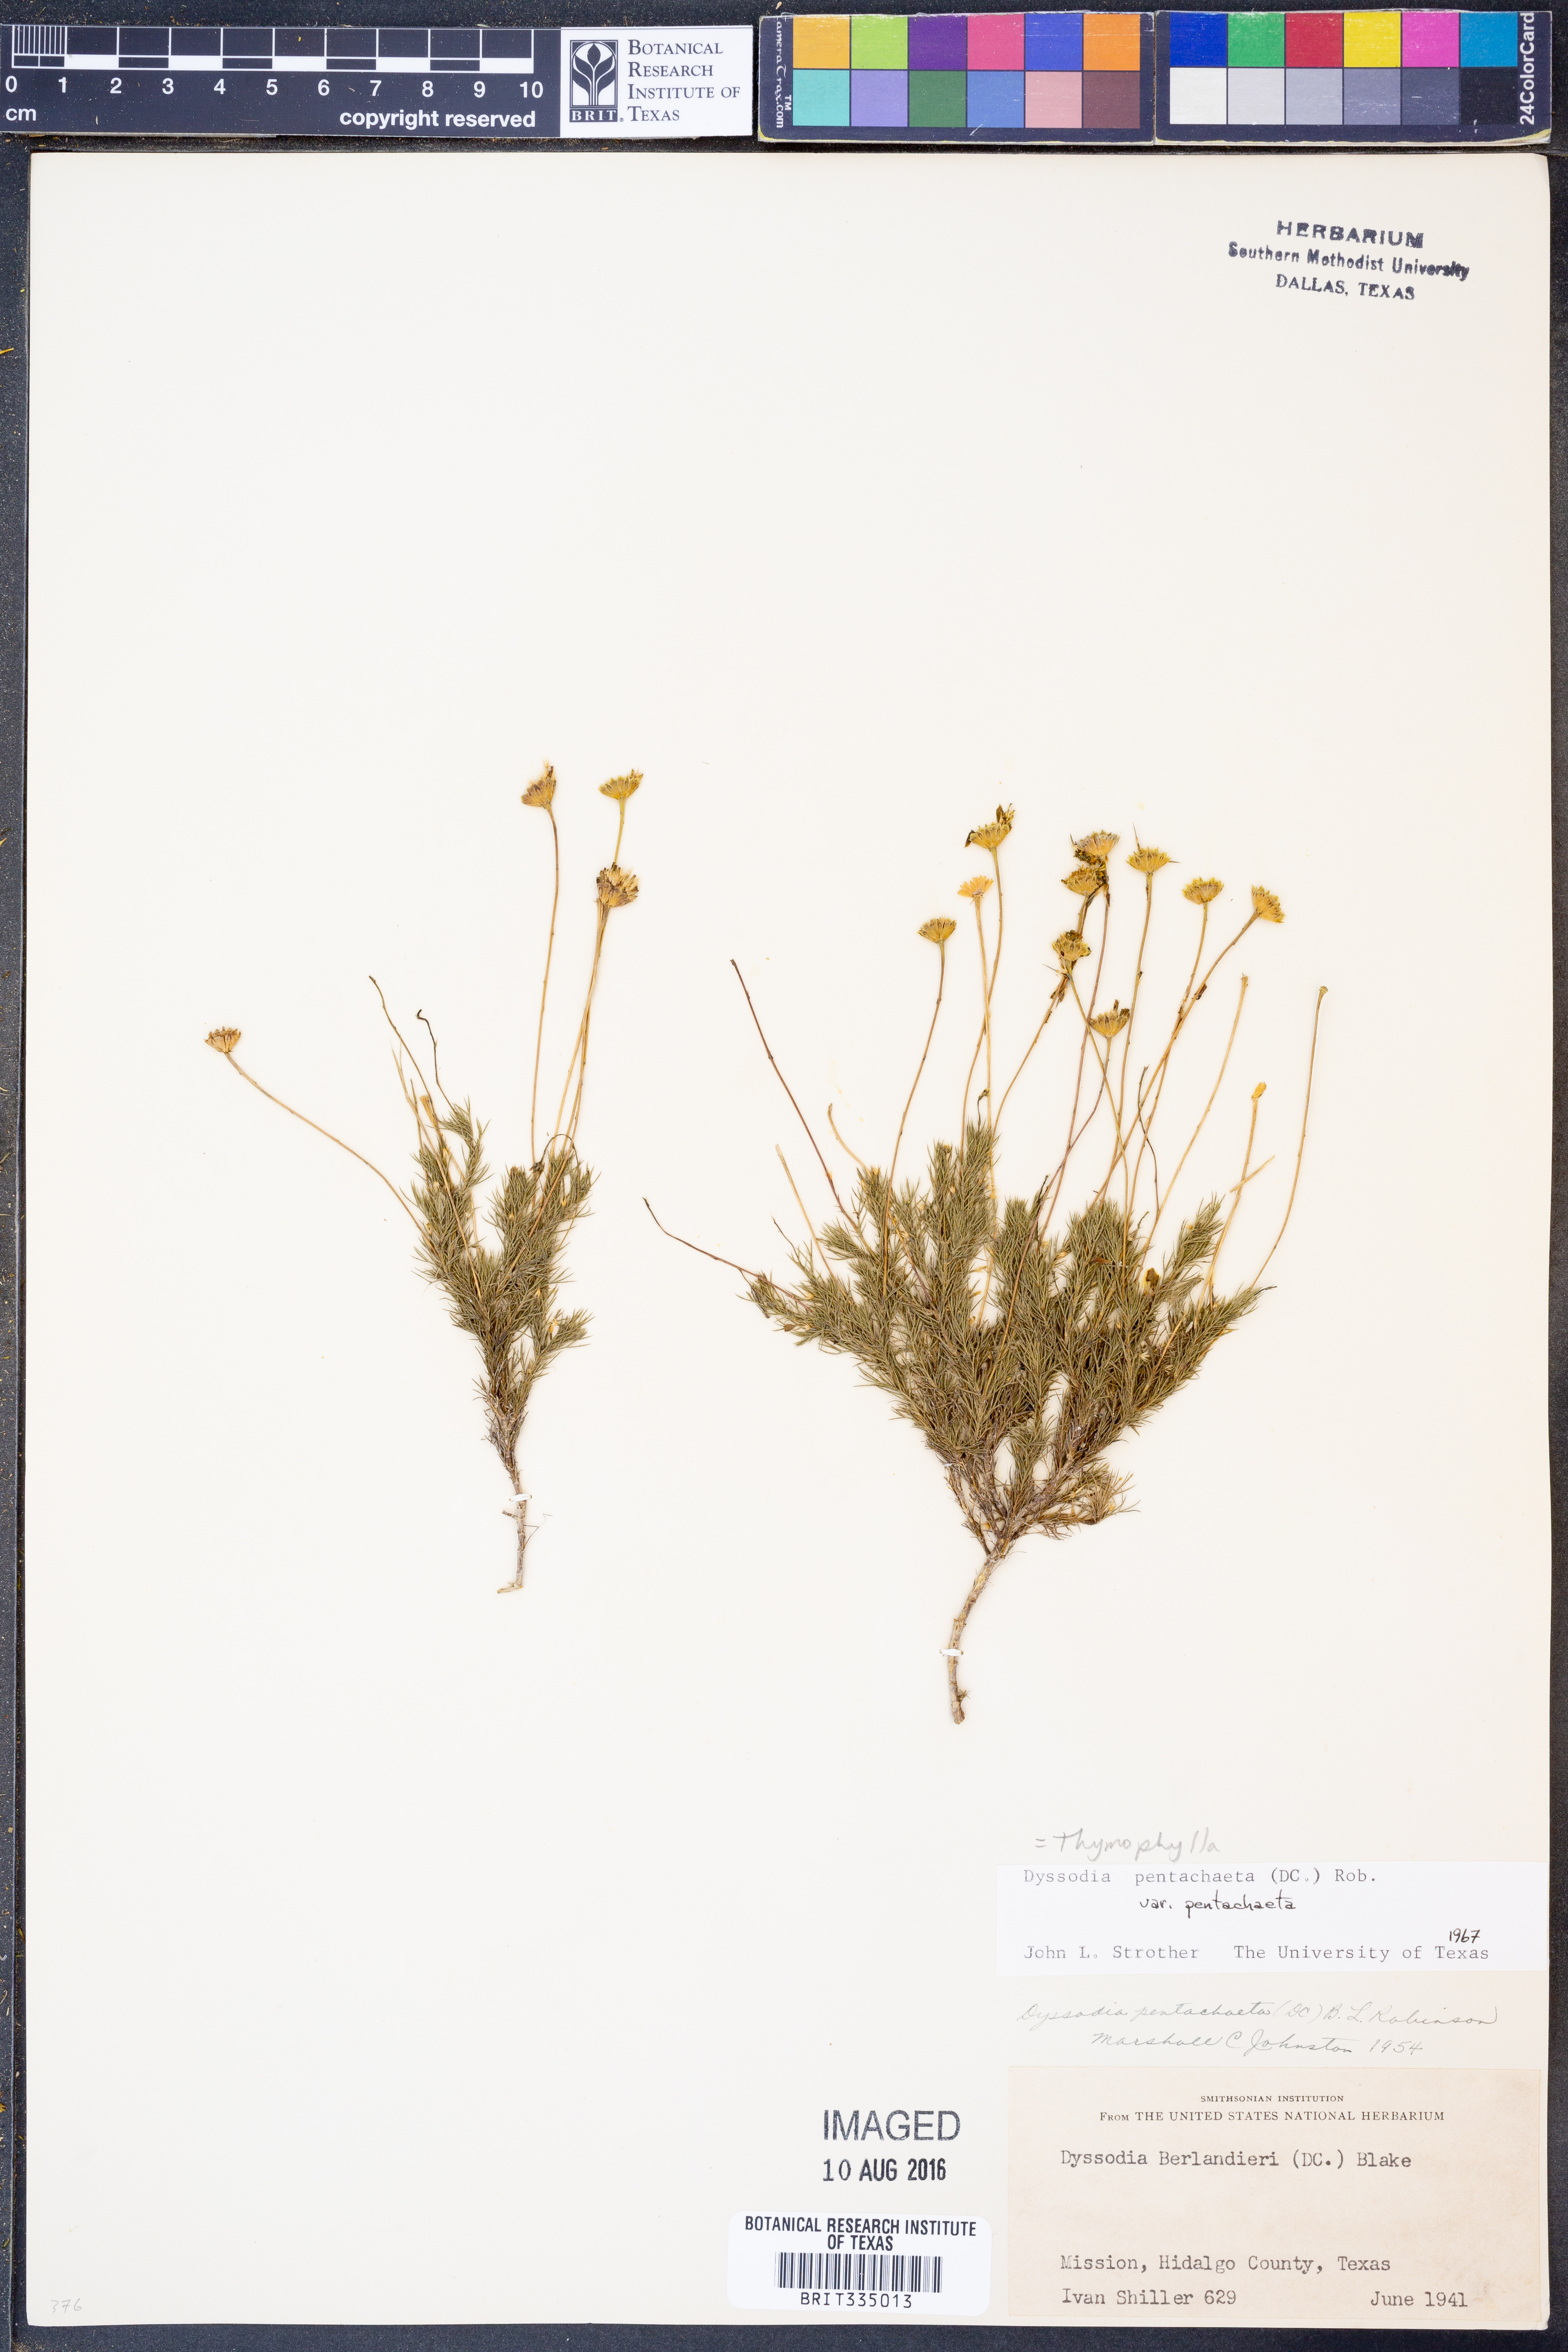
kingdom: Plantae
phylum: Tracheophyta
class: Magnoliopsida
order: Asterales
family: Asteraceae
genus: Thymophylla
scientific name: Thymophylla pentachaeta
